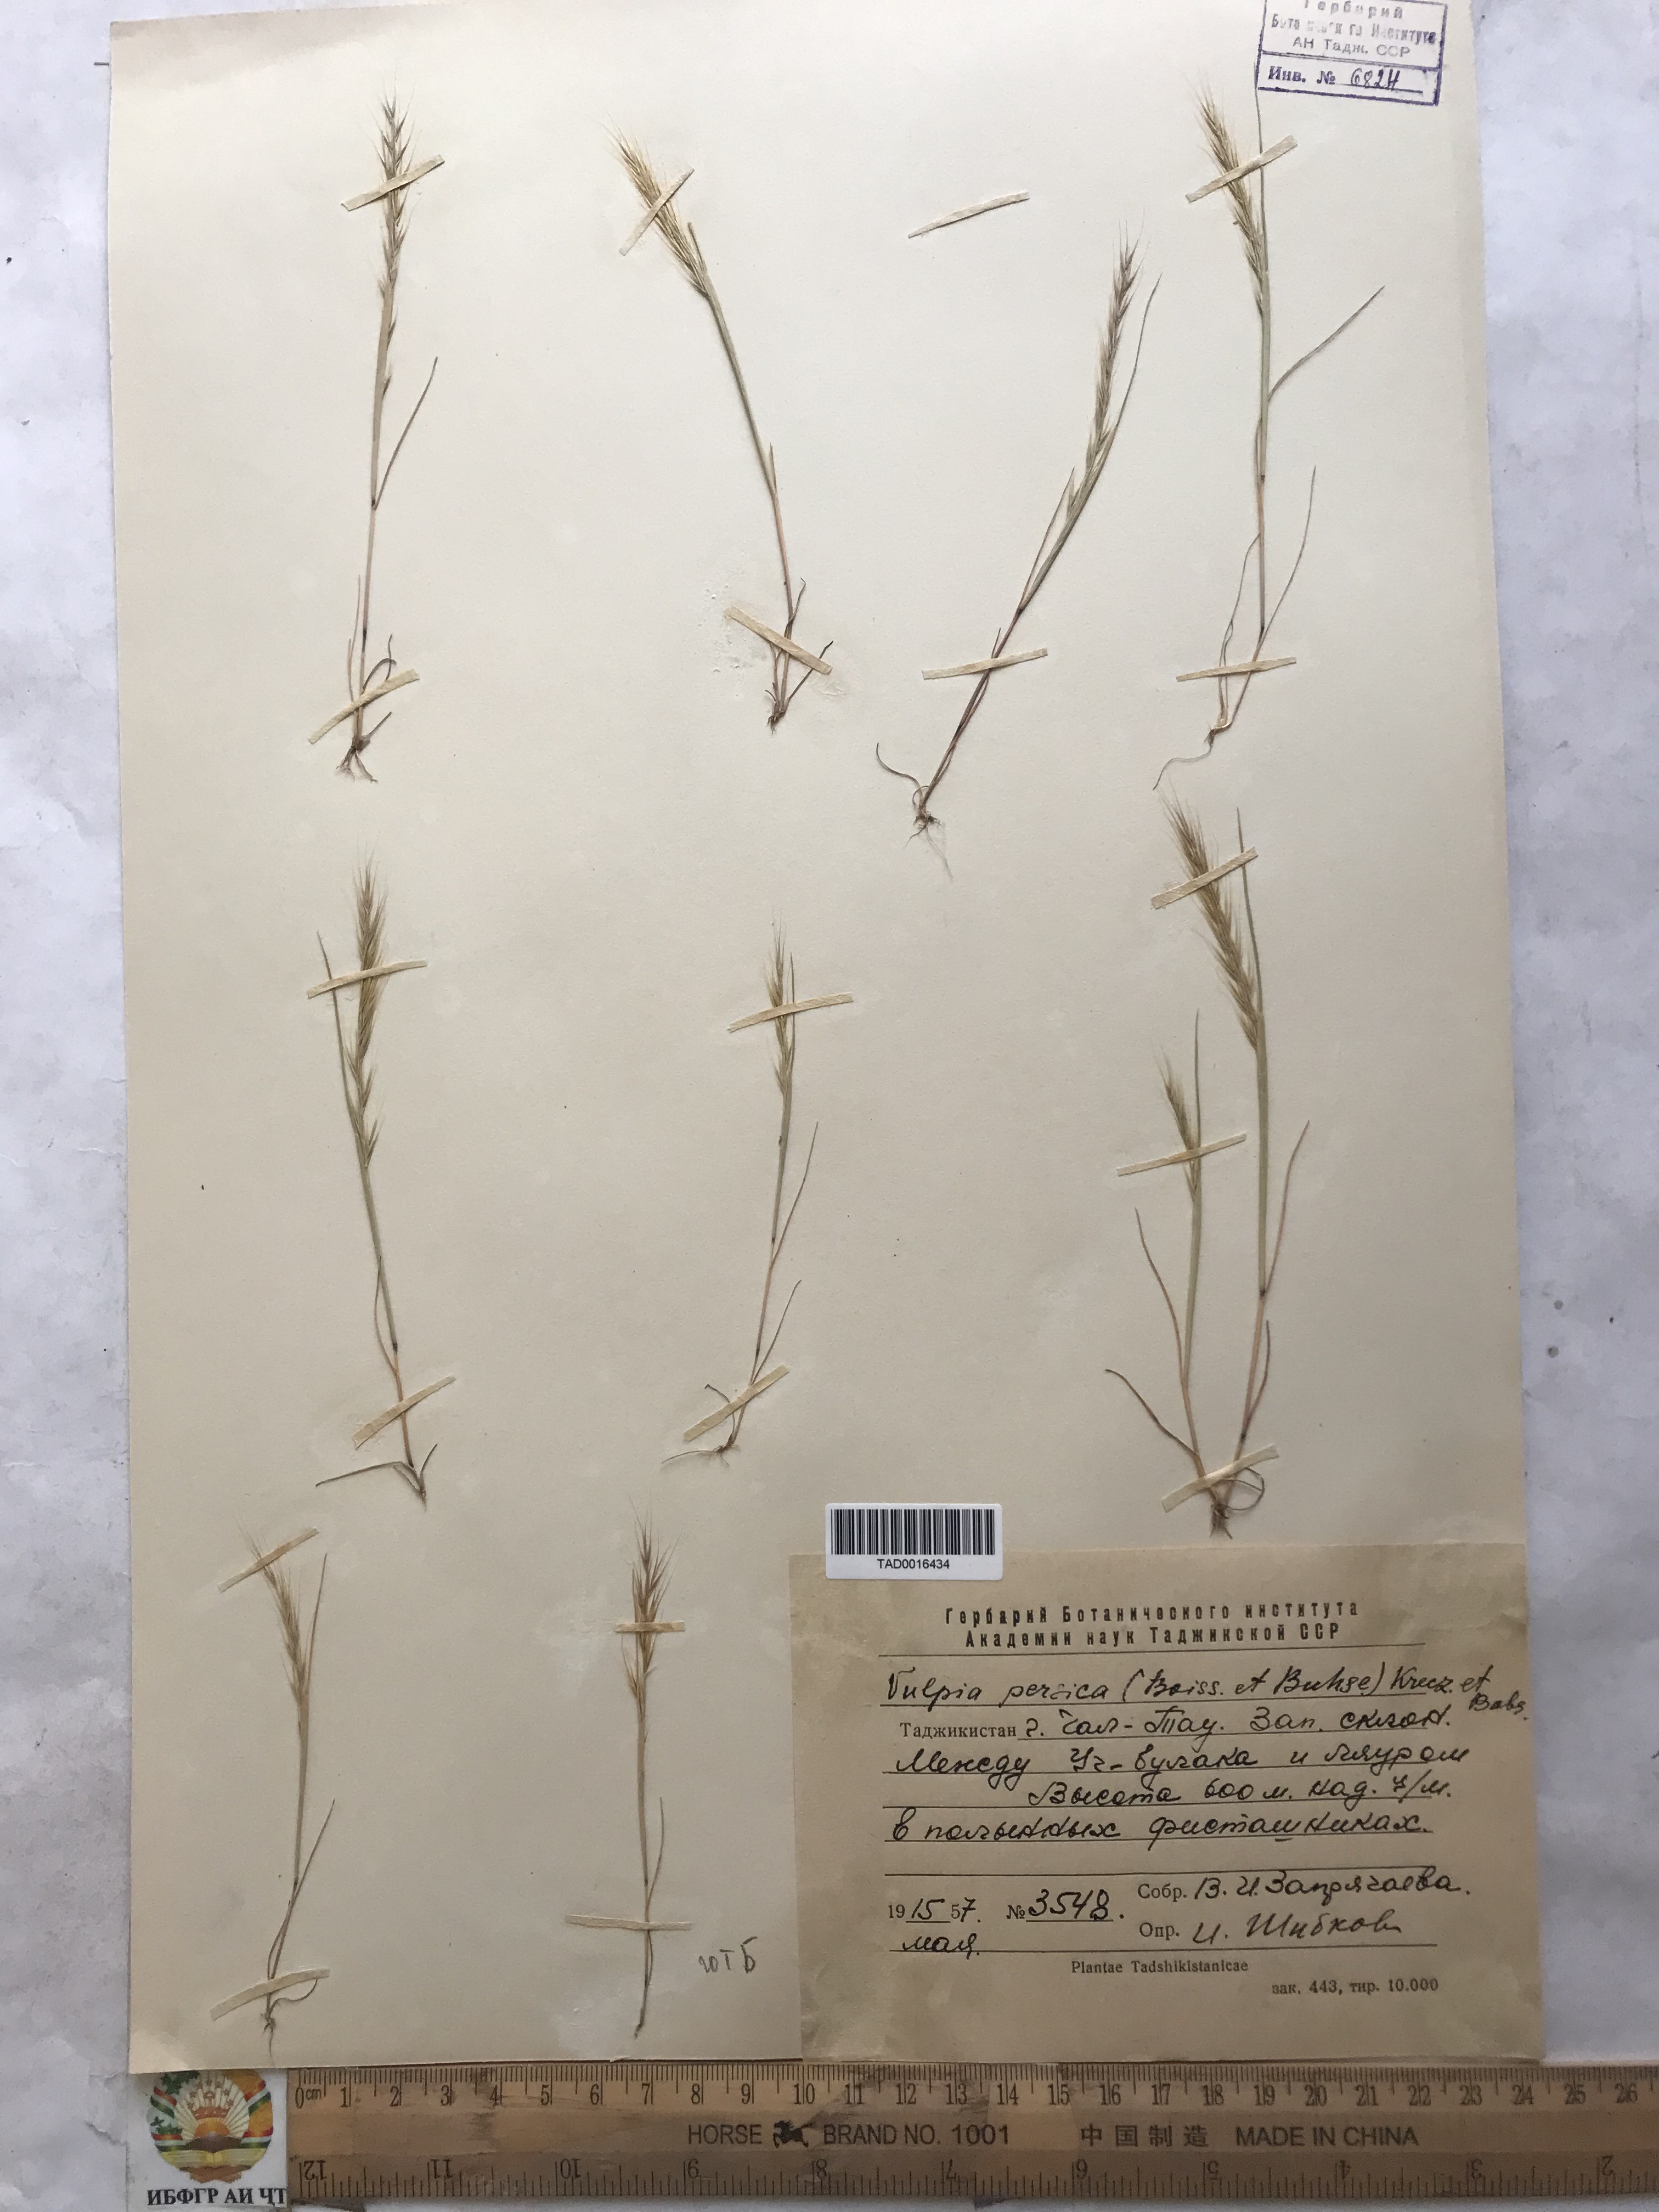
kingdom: Plantae
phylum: Tracheophyta
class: Liliopsida
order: Poales
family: Poaceae
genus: Festuca
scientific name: Festuca Vulpia persica
